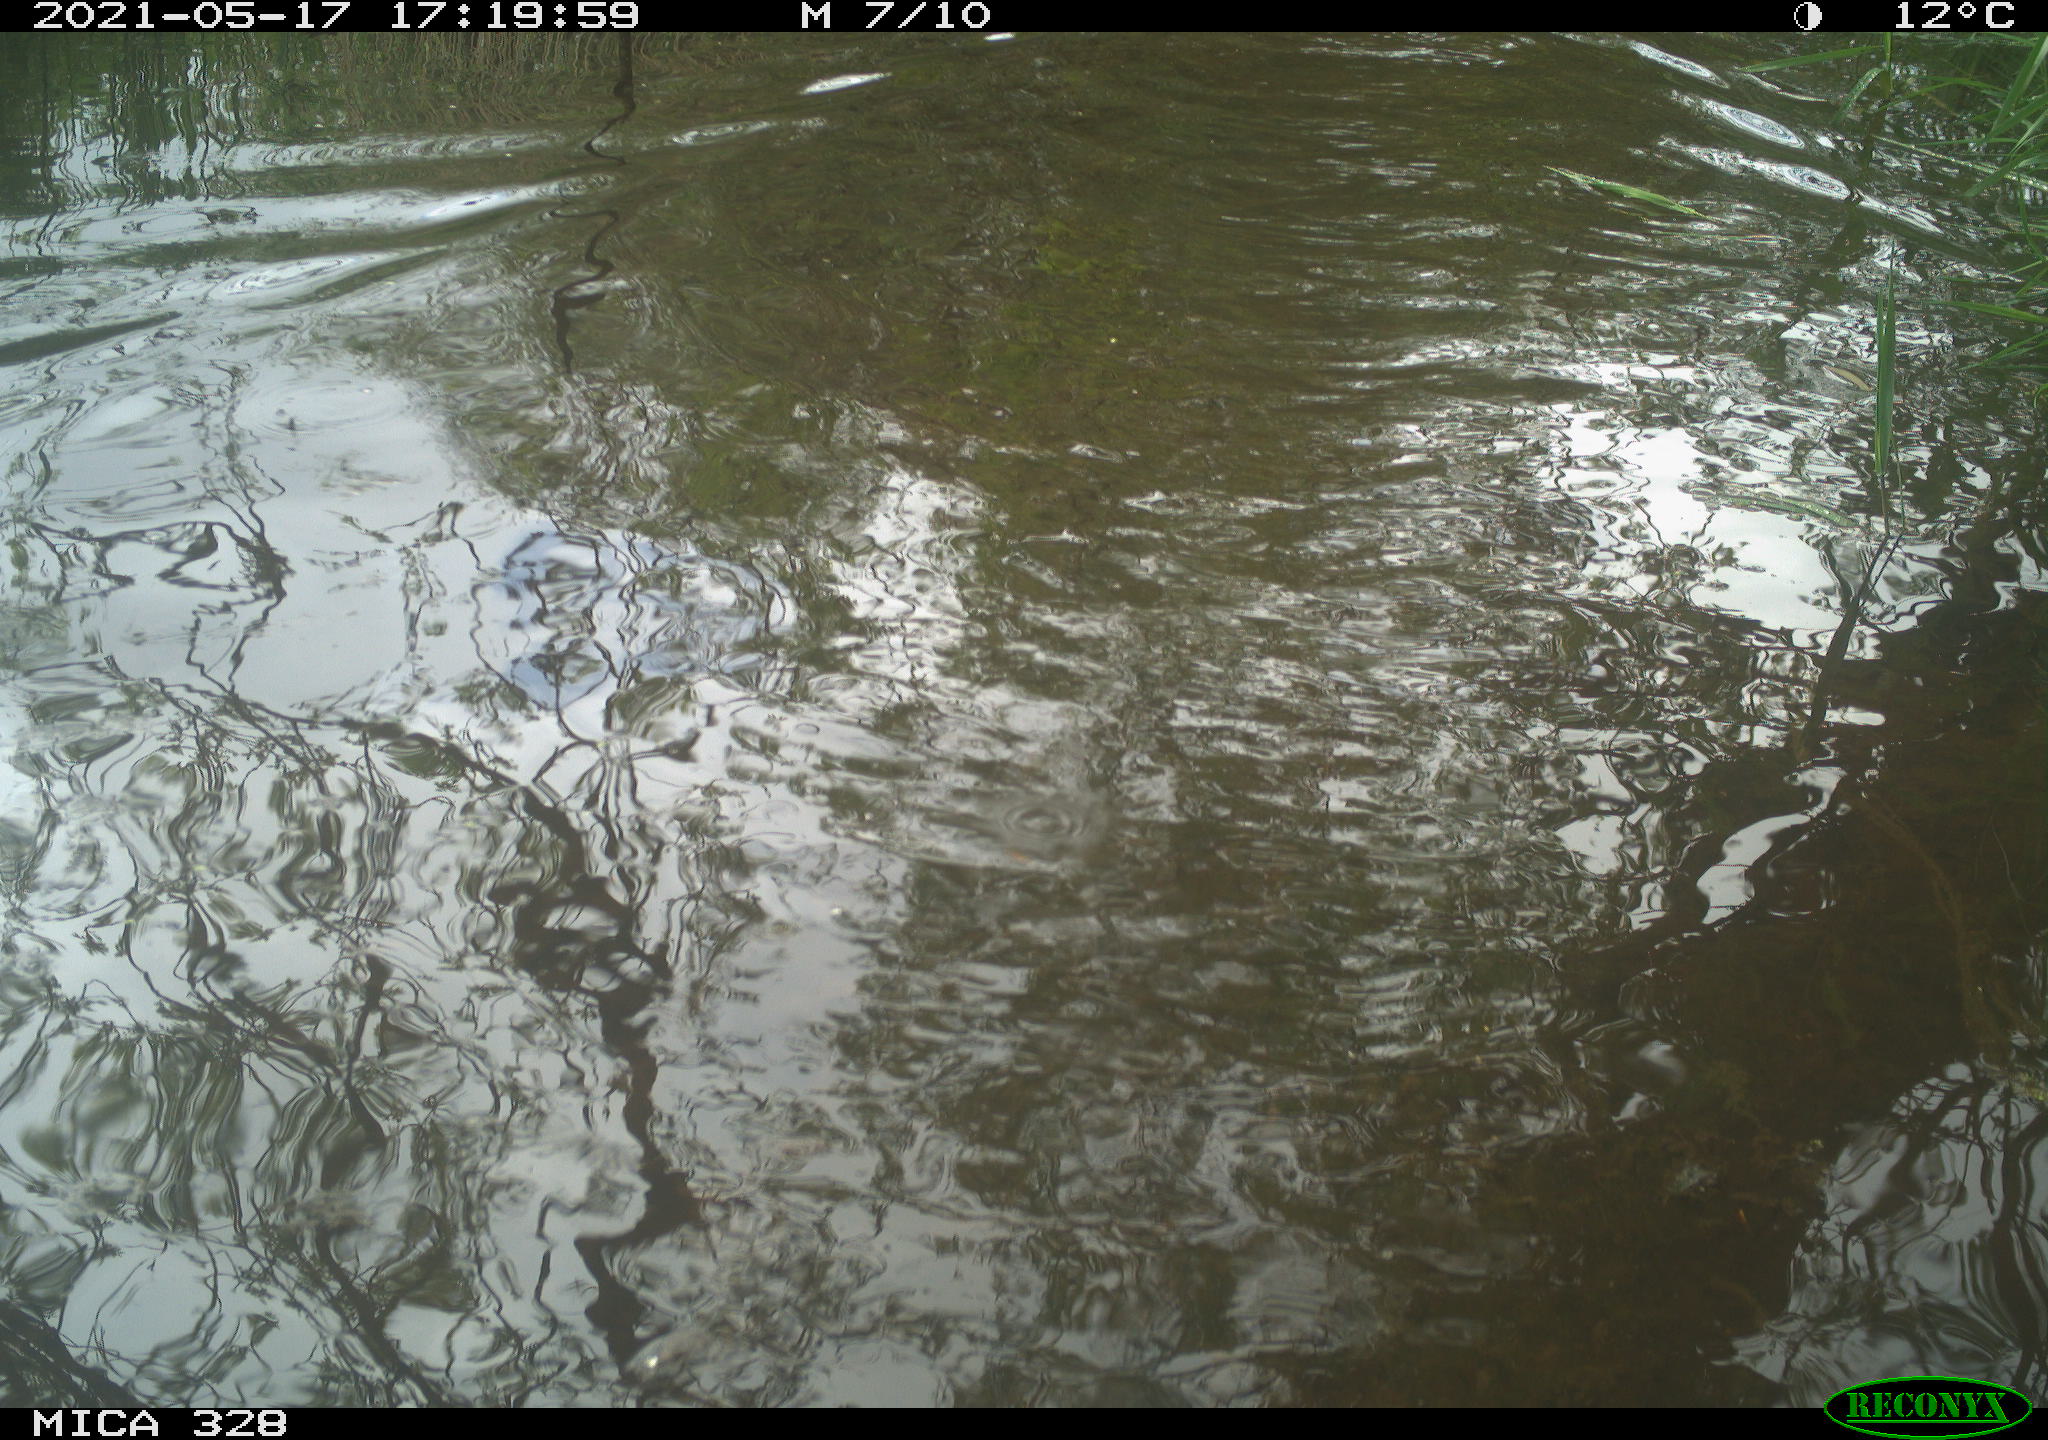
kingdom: Animalia
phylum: Chordata
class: Mammalia
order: Rodentia
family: Cricetidae
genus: Ondatra
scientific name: Ondatra zibethicus
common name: Muskrat
